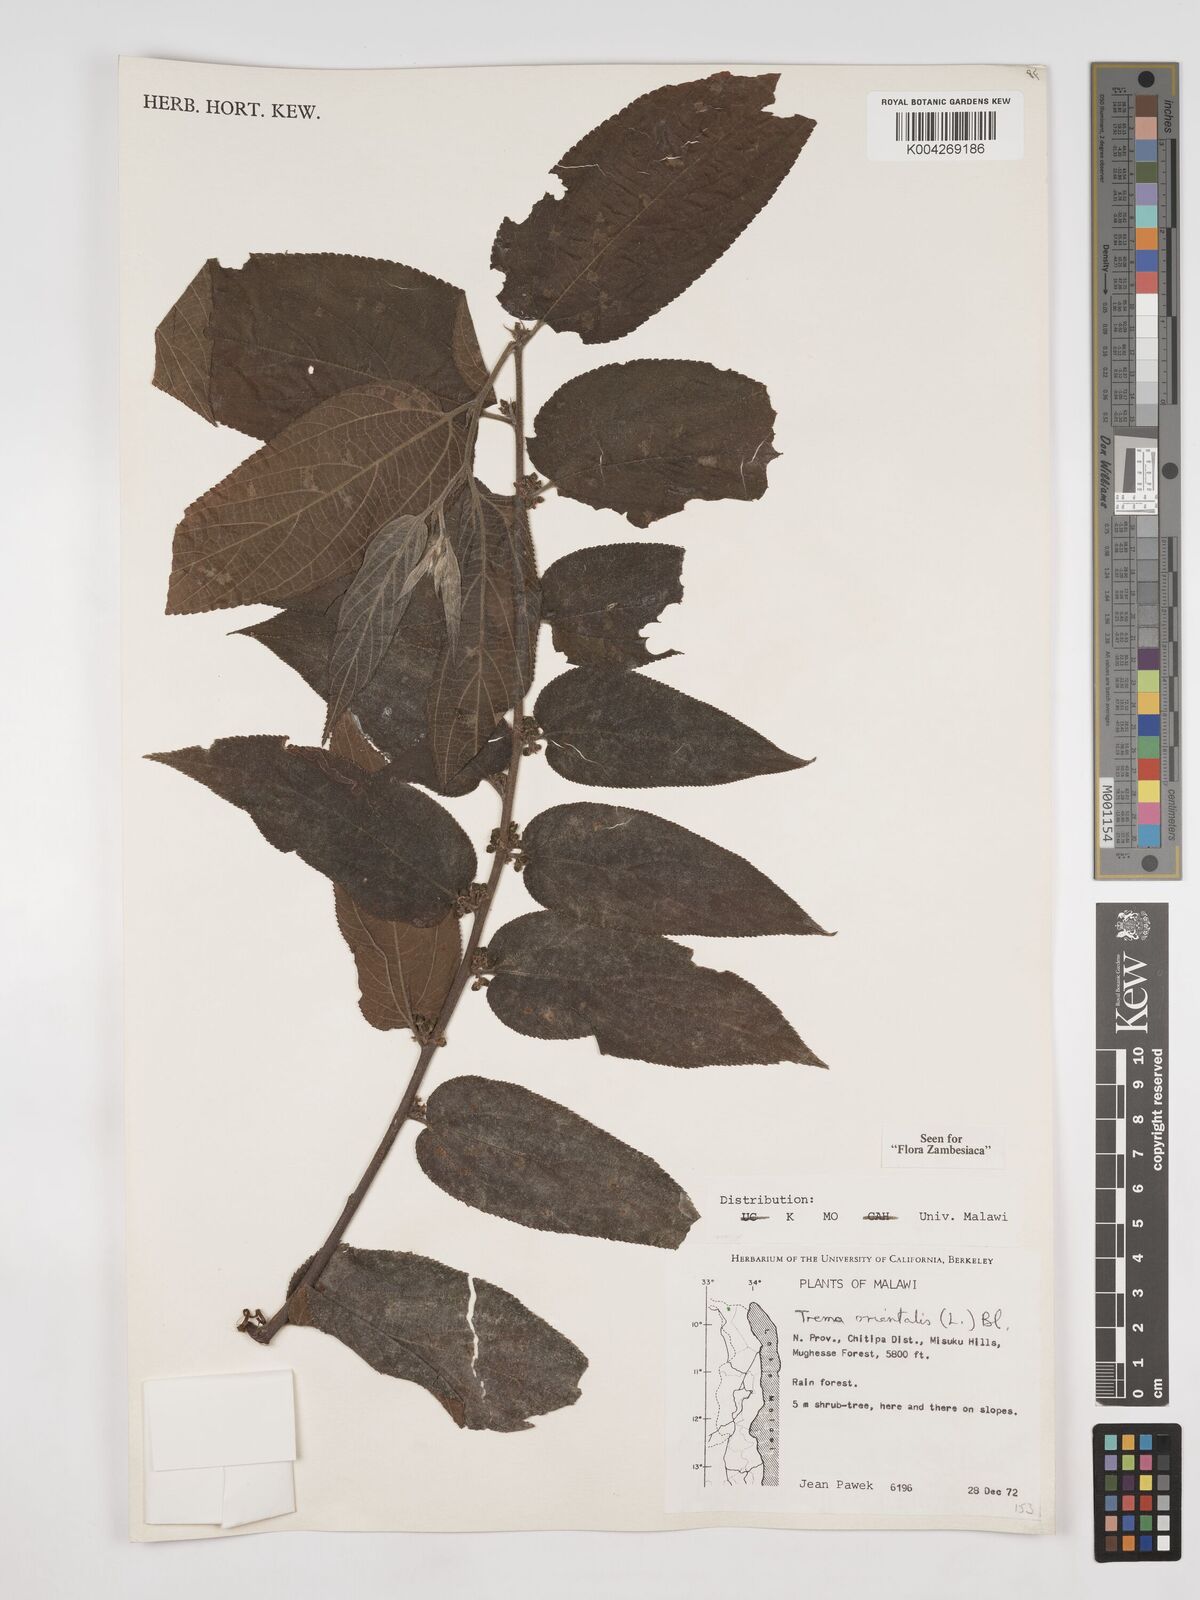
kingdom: Plantae
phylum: Tracheophyta
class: Magnoliopsida
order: Rosales
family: Cannabaceae
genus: Trema
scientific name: Trema orientale
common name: Indian charcoal tree
